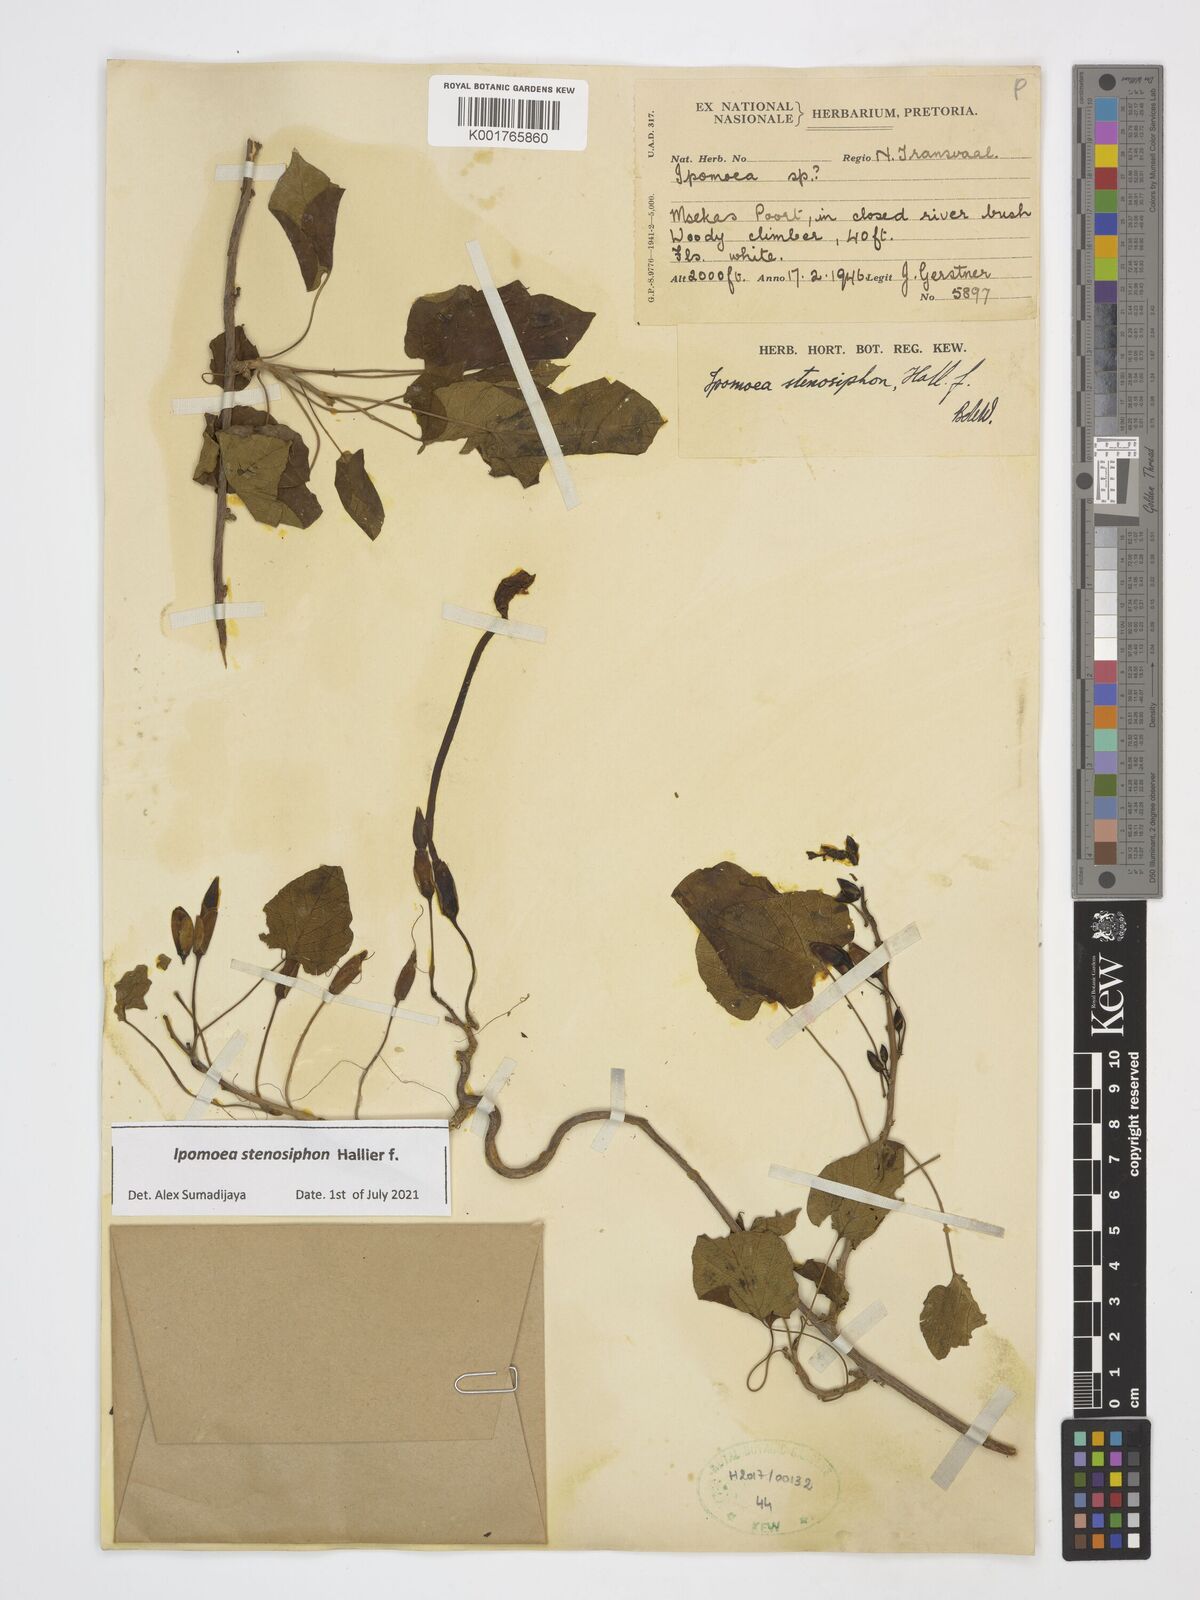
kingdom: Plantae
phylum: Tracheophyta
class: Magnoliopsida
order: Solanales
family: Convolvulaceae
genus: Ipomoea
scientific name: Ipomoea stenosiphon
